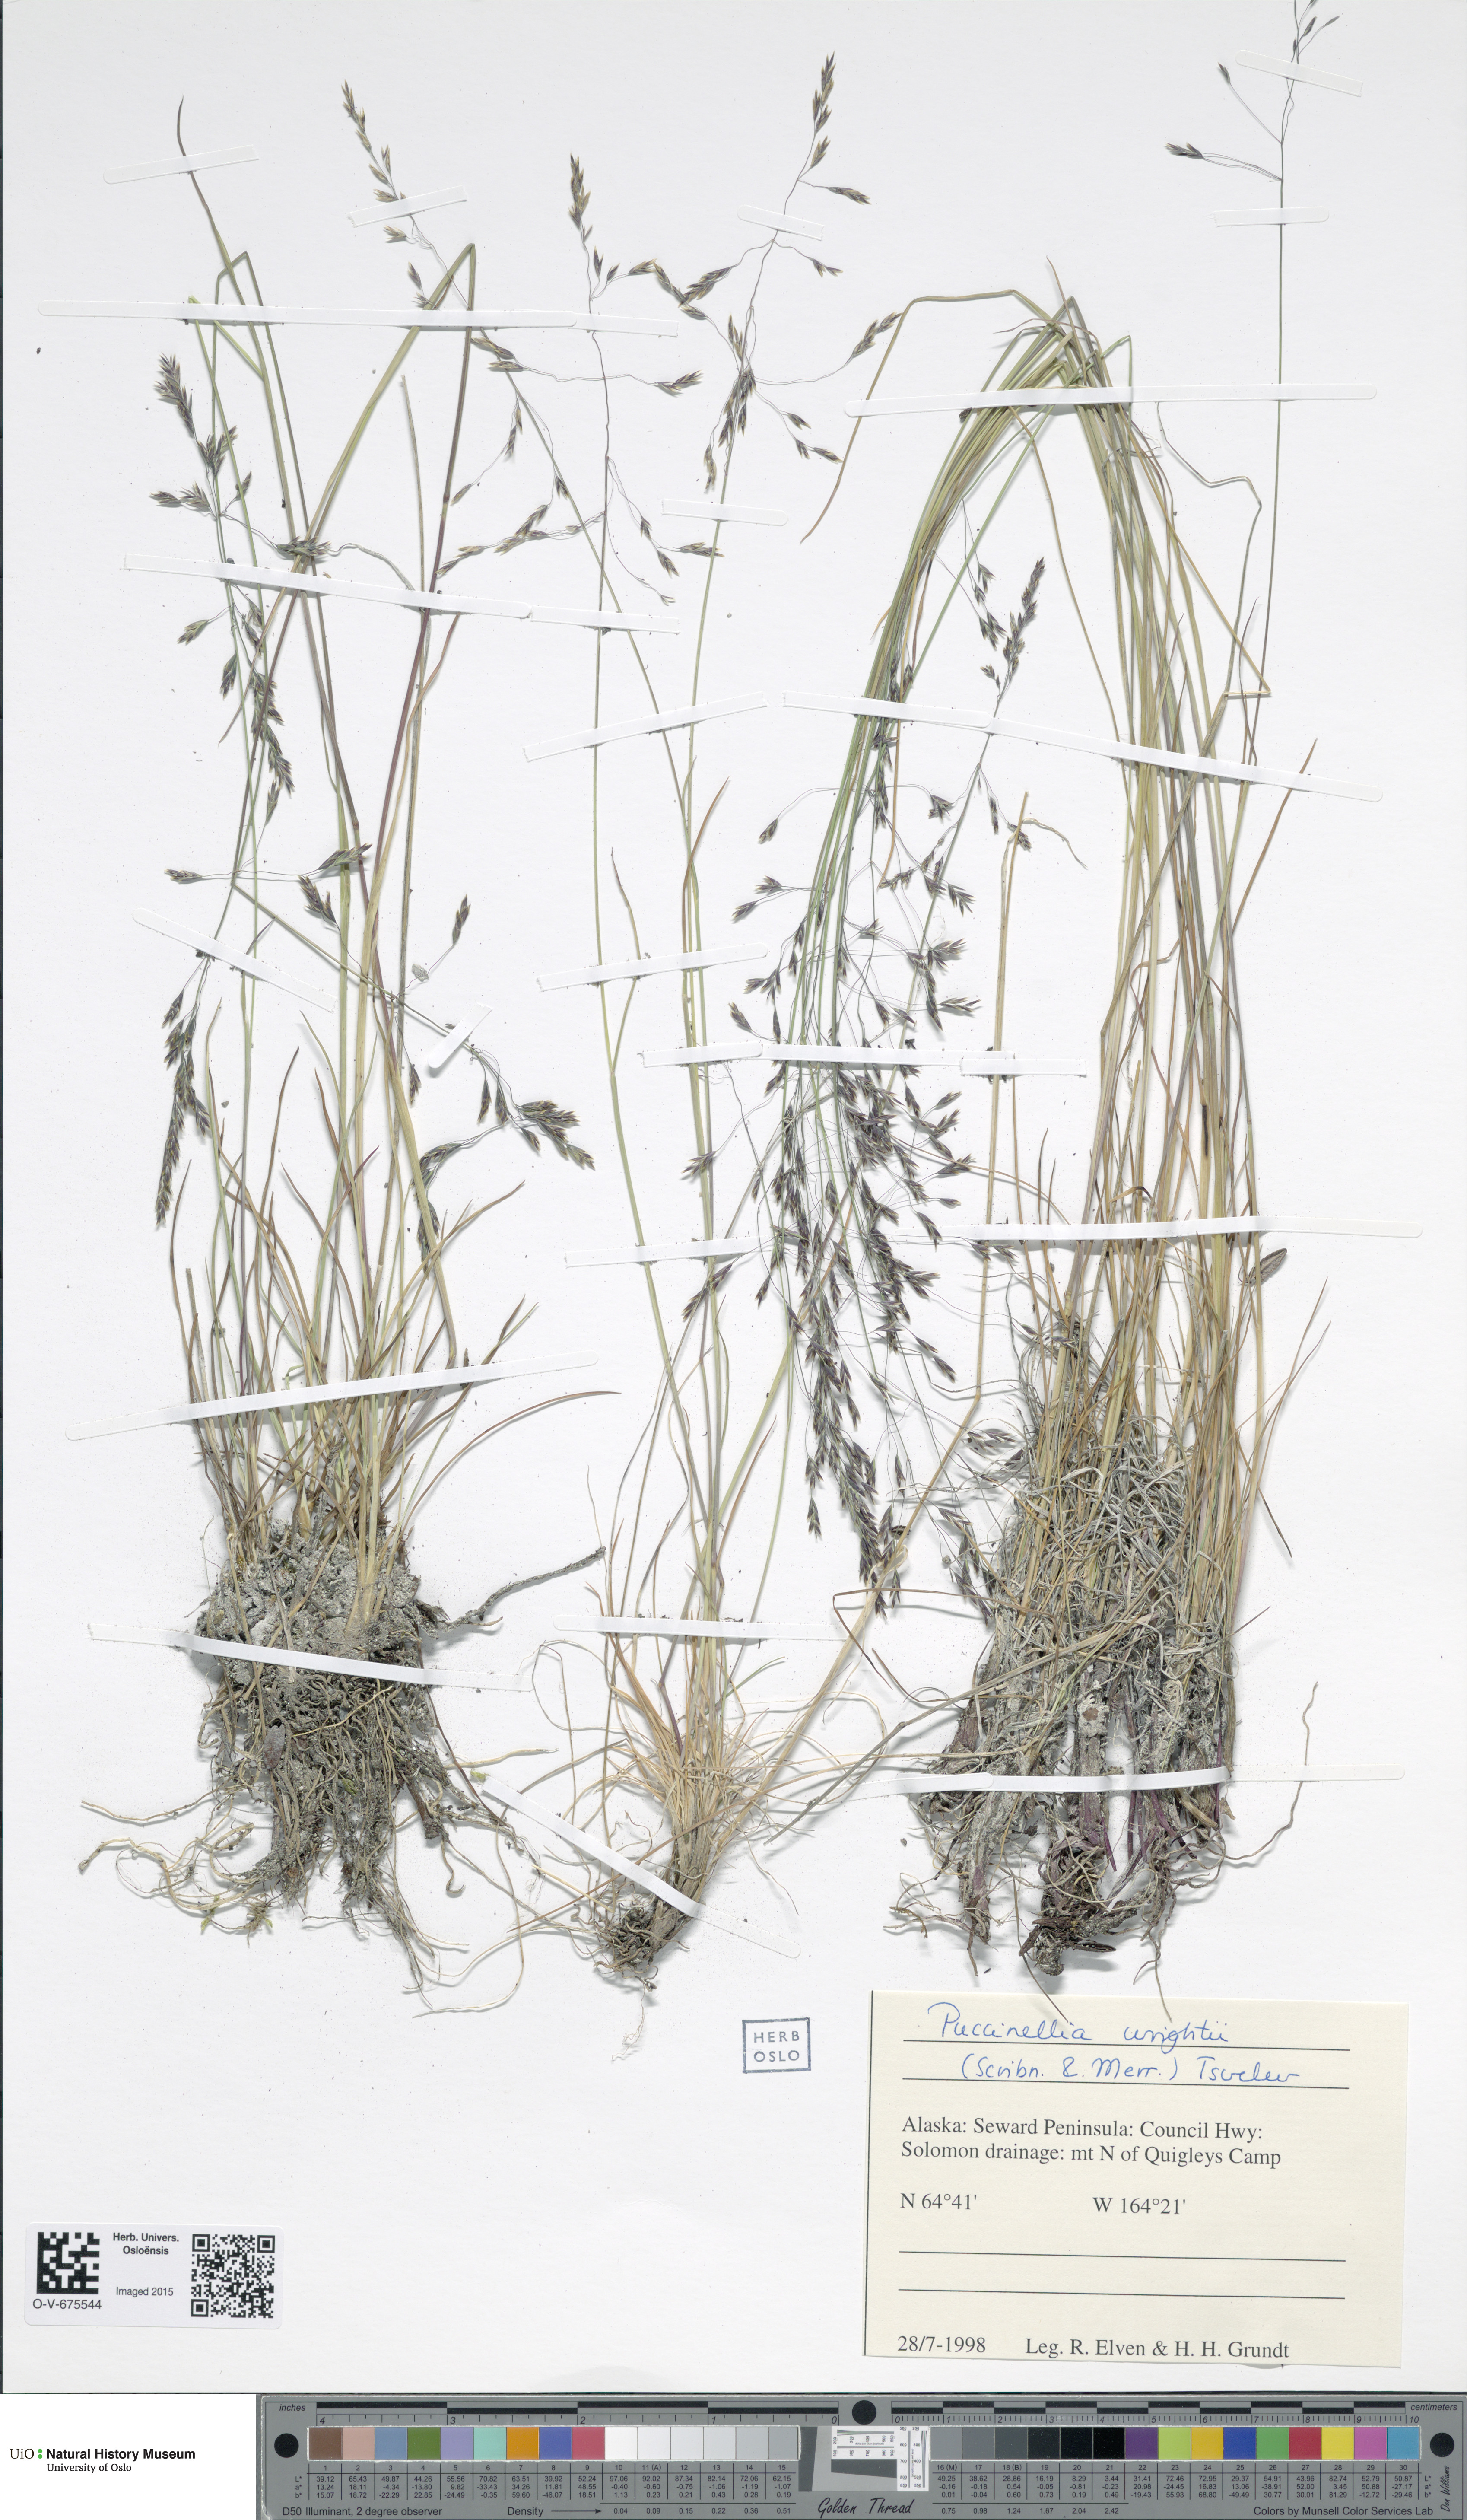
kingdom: Plantae
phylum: Tracheophyta
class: Liliopsida
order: Poales
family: Poaceae
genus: Puccinellia
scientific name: Puccinellia wrightii
